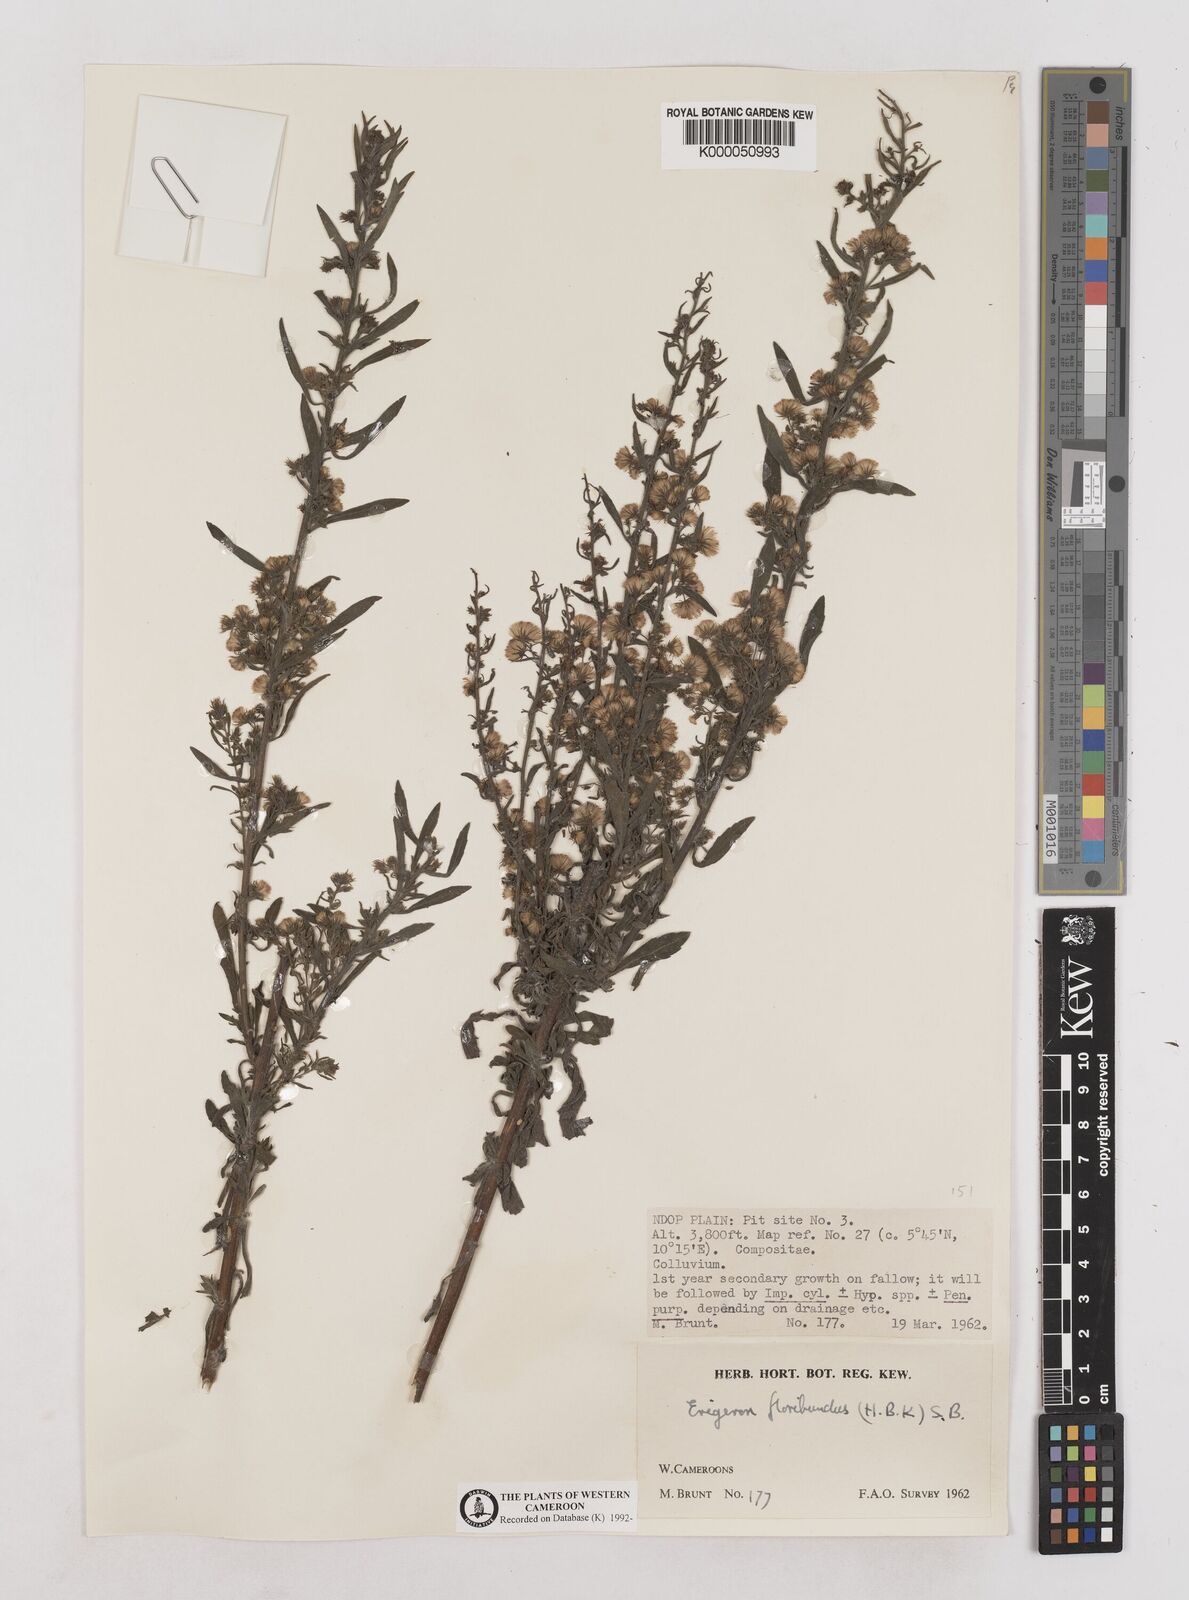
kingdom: Plantae
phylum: Tracheophyta
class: Magnoliopsida
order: Asterales
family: Asteraceae
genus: Erigeron
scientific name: Erigeron sumatrensis
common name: Daisy
